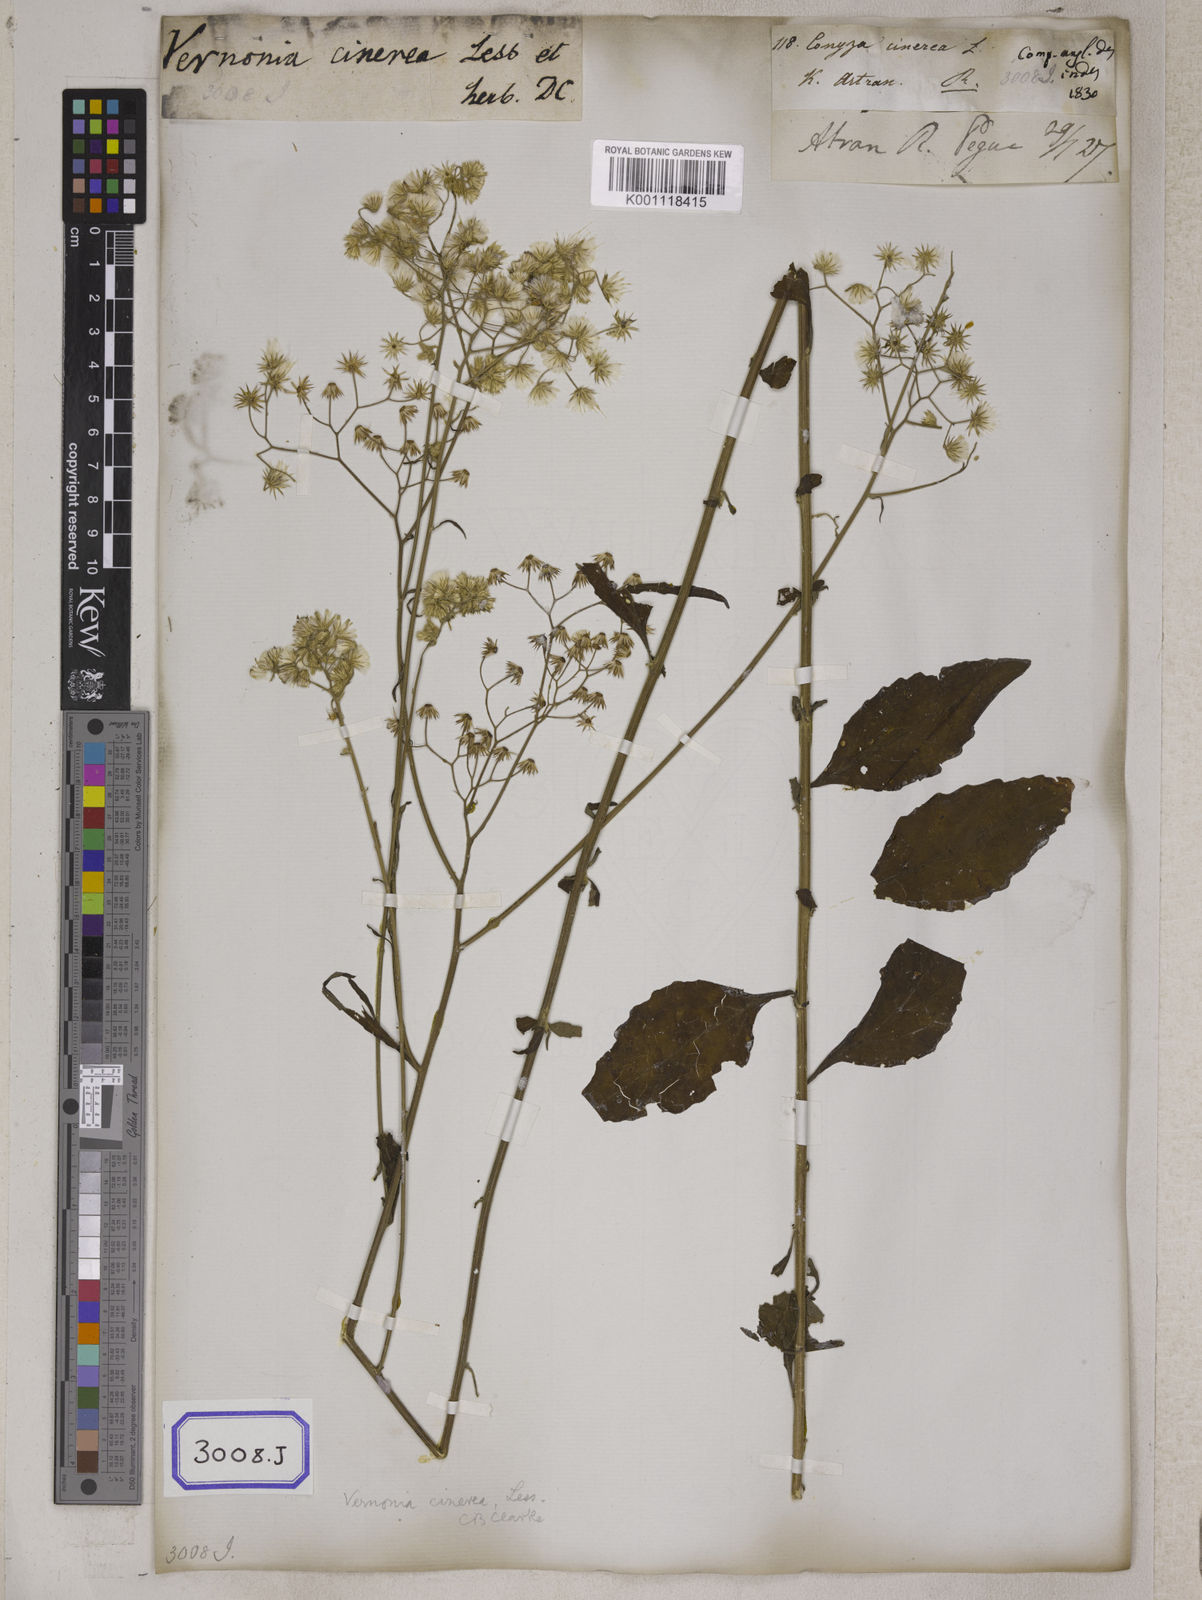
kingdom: Plantae
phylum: Tracheophyta
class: Magnoliopsida
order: Asterales
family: Asteraceae
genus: Cyanthillium
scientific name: Cyanthillium cinereum
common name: Little ironweed
